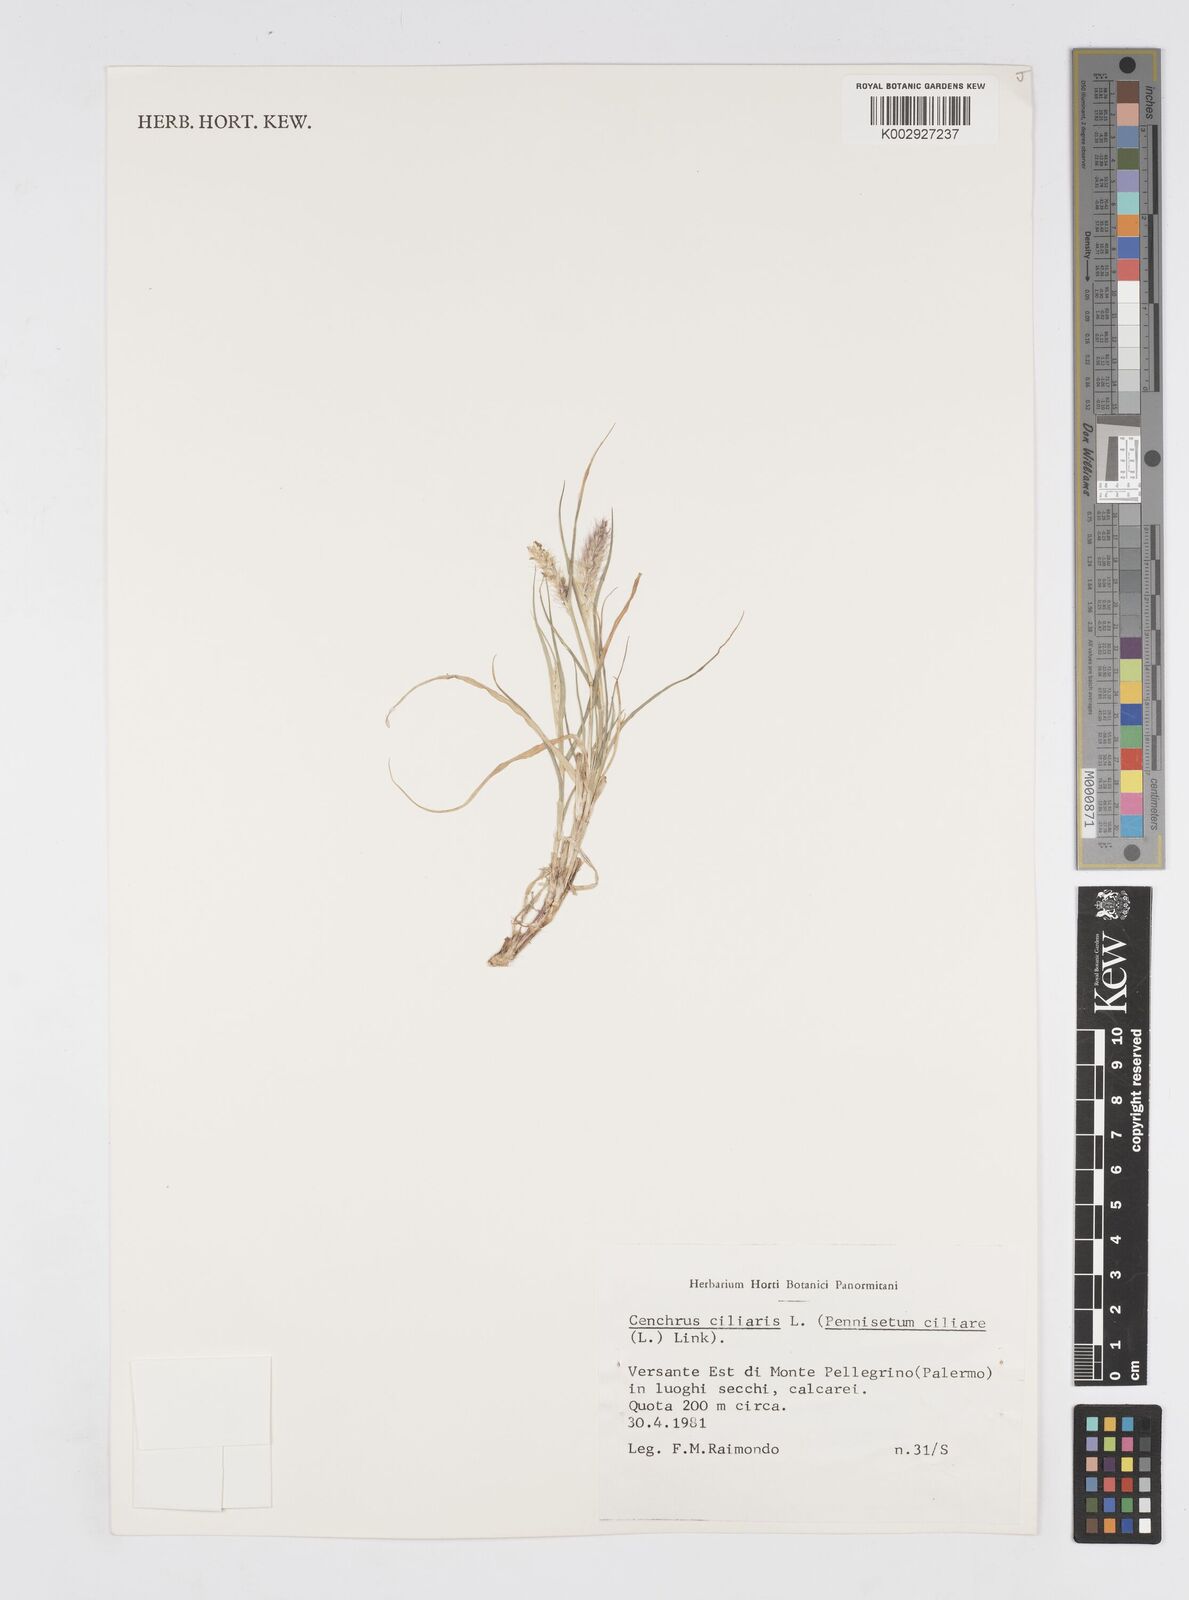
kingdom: Plantae
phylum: Tracheophyta
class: Liliopsida
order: Poales
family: Poaceae
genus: Cenchrus
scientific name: Cenchrus ciliaris
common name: Buffelgrass
